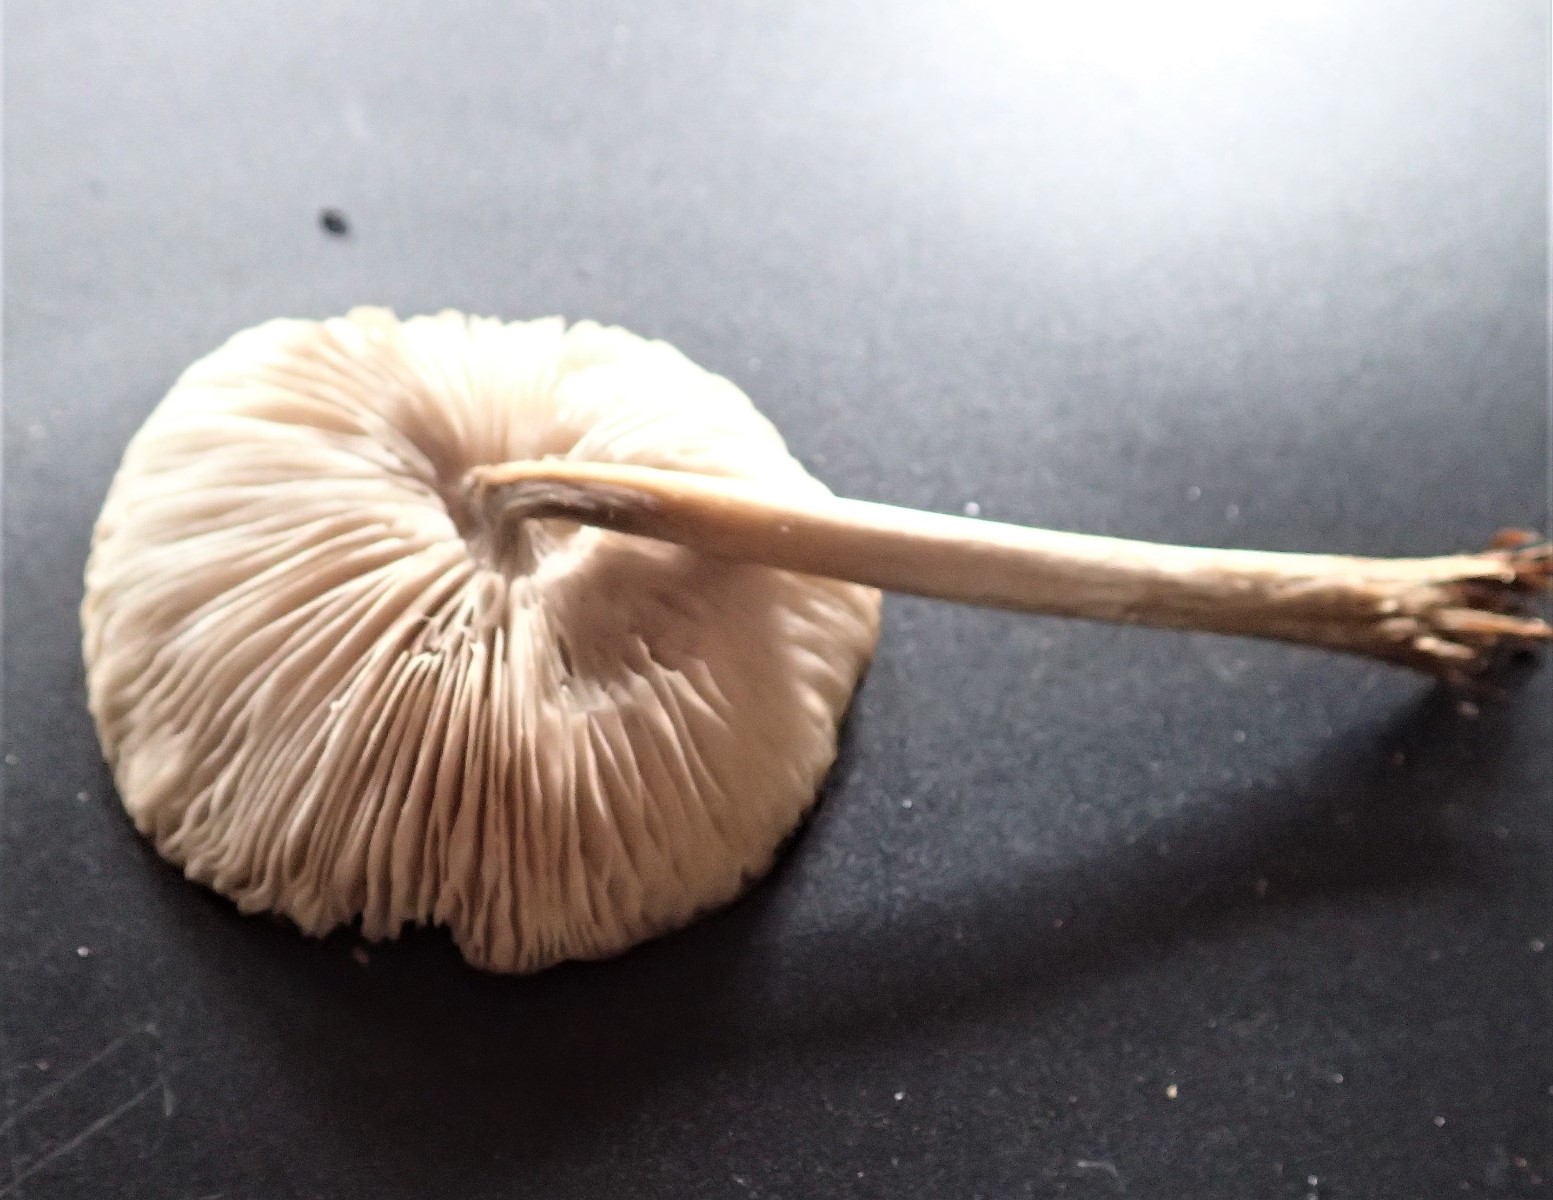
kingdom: Fungi
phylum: Basidiomycota
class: Agaricomycetes
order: Agaricales
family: Tricholomataceae
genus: Melanoleuca
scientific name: Melanoleuca
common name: munkehat
